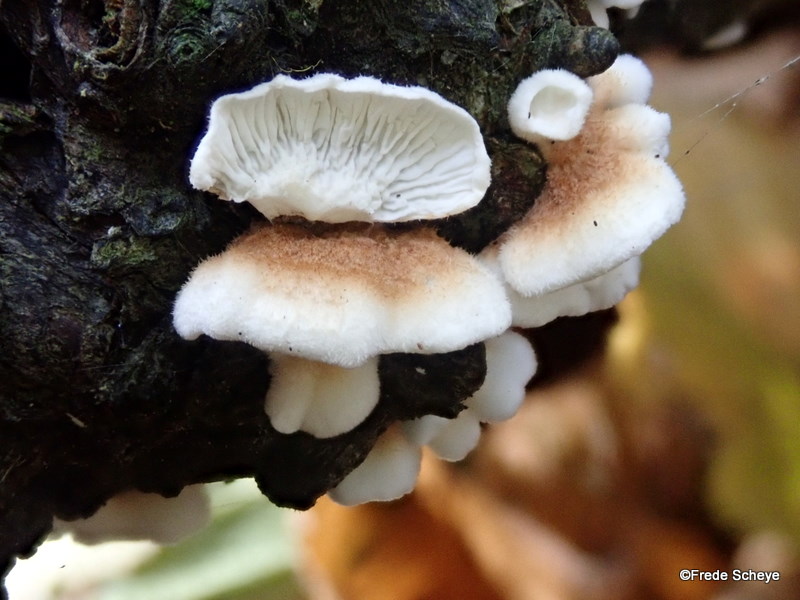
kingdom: Fungi
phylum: Basidiomycota
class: Agaricomycetes
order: Amylocorticiales
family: Amylocorticiaceae
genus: Plicaturopsis
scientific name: Plicaturopsis crispa
